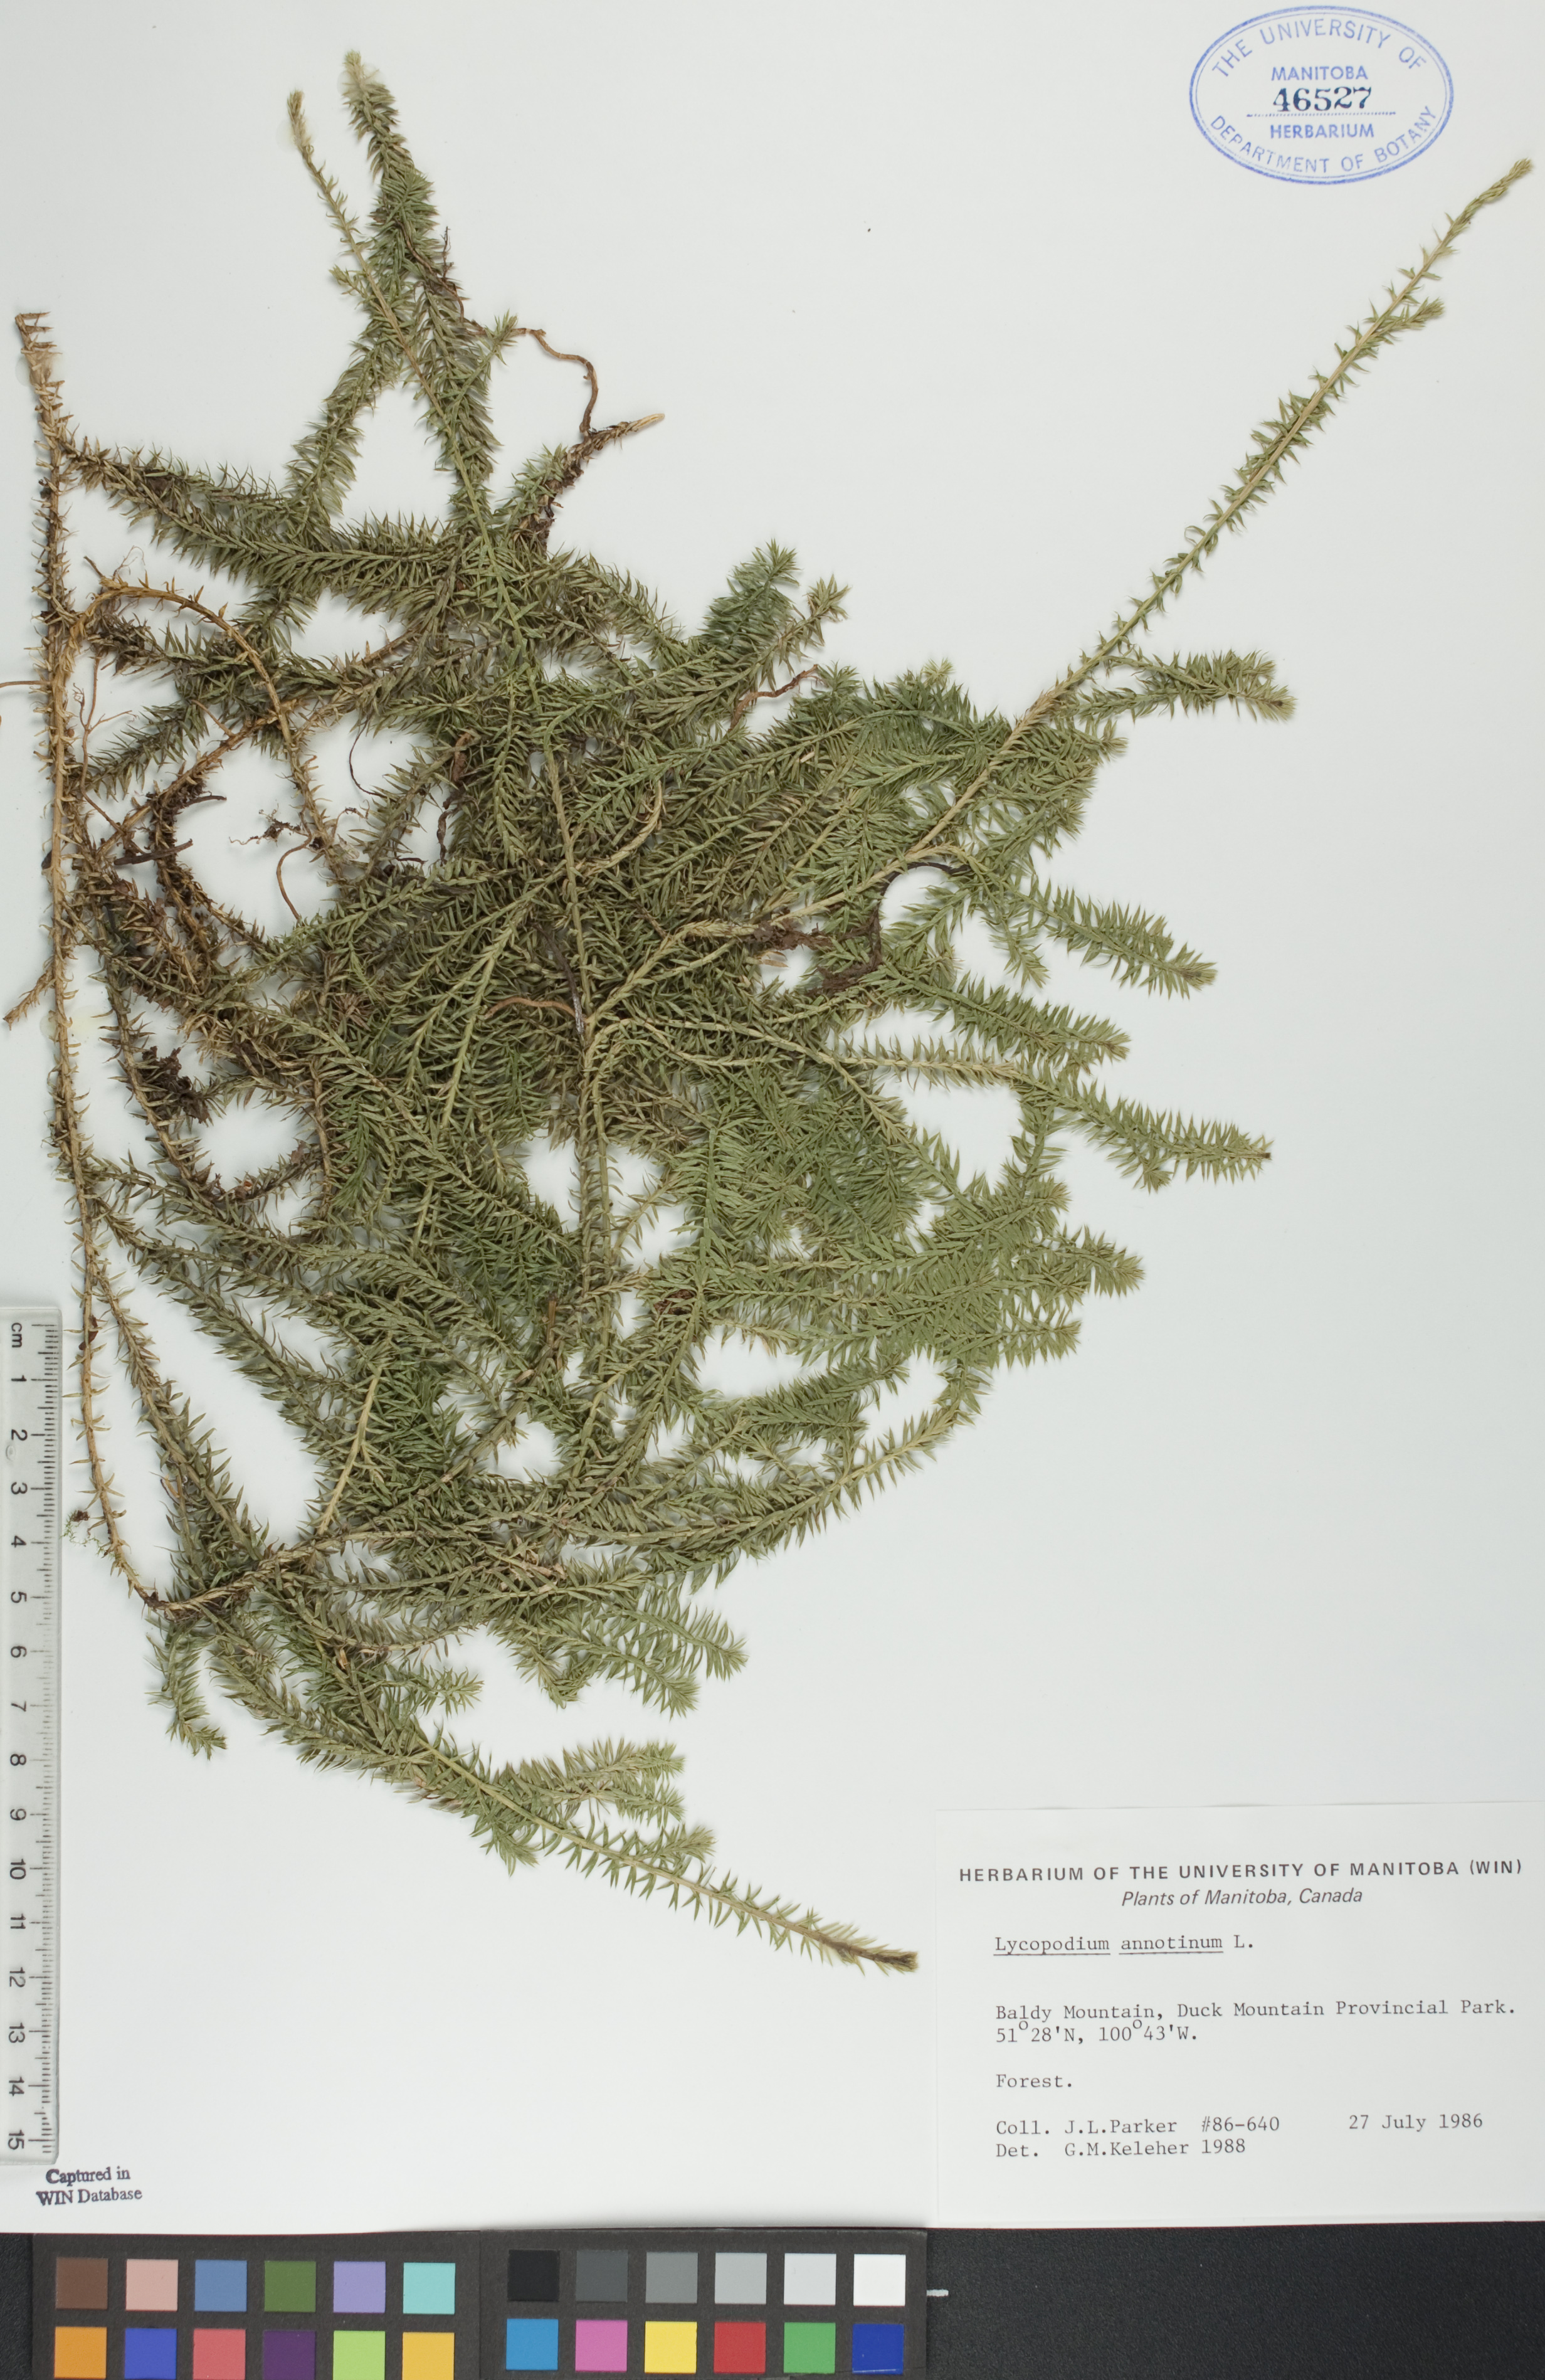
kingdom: Plantae
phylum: Tracheophyta
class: Lycopodiopsida
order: Lycopodiales
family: Lycopodiaceae
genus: Spinulum
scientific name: Spinulum annotinum
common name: Interrupted club-moss
